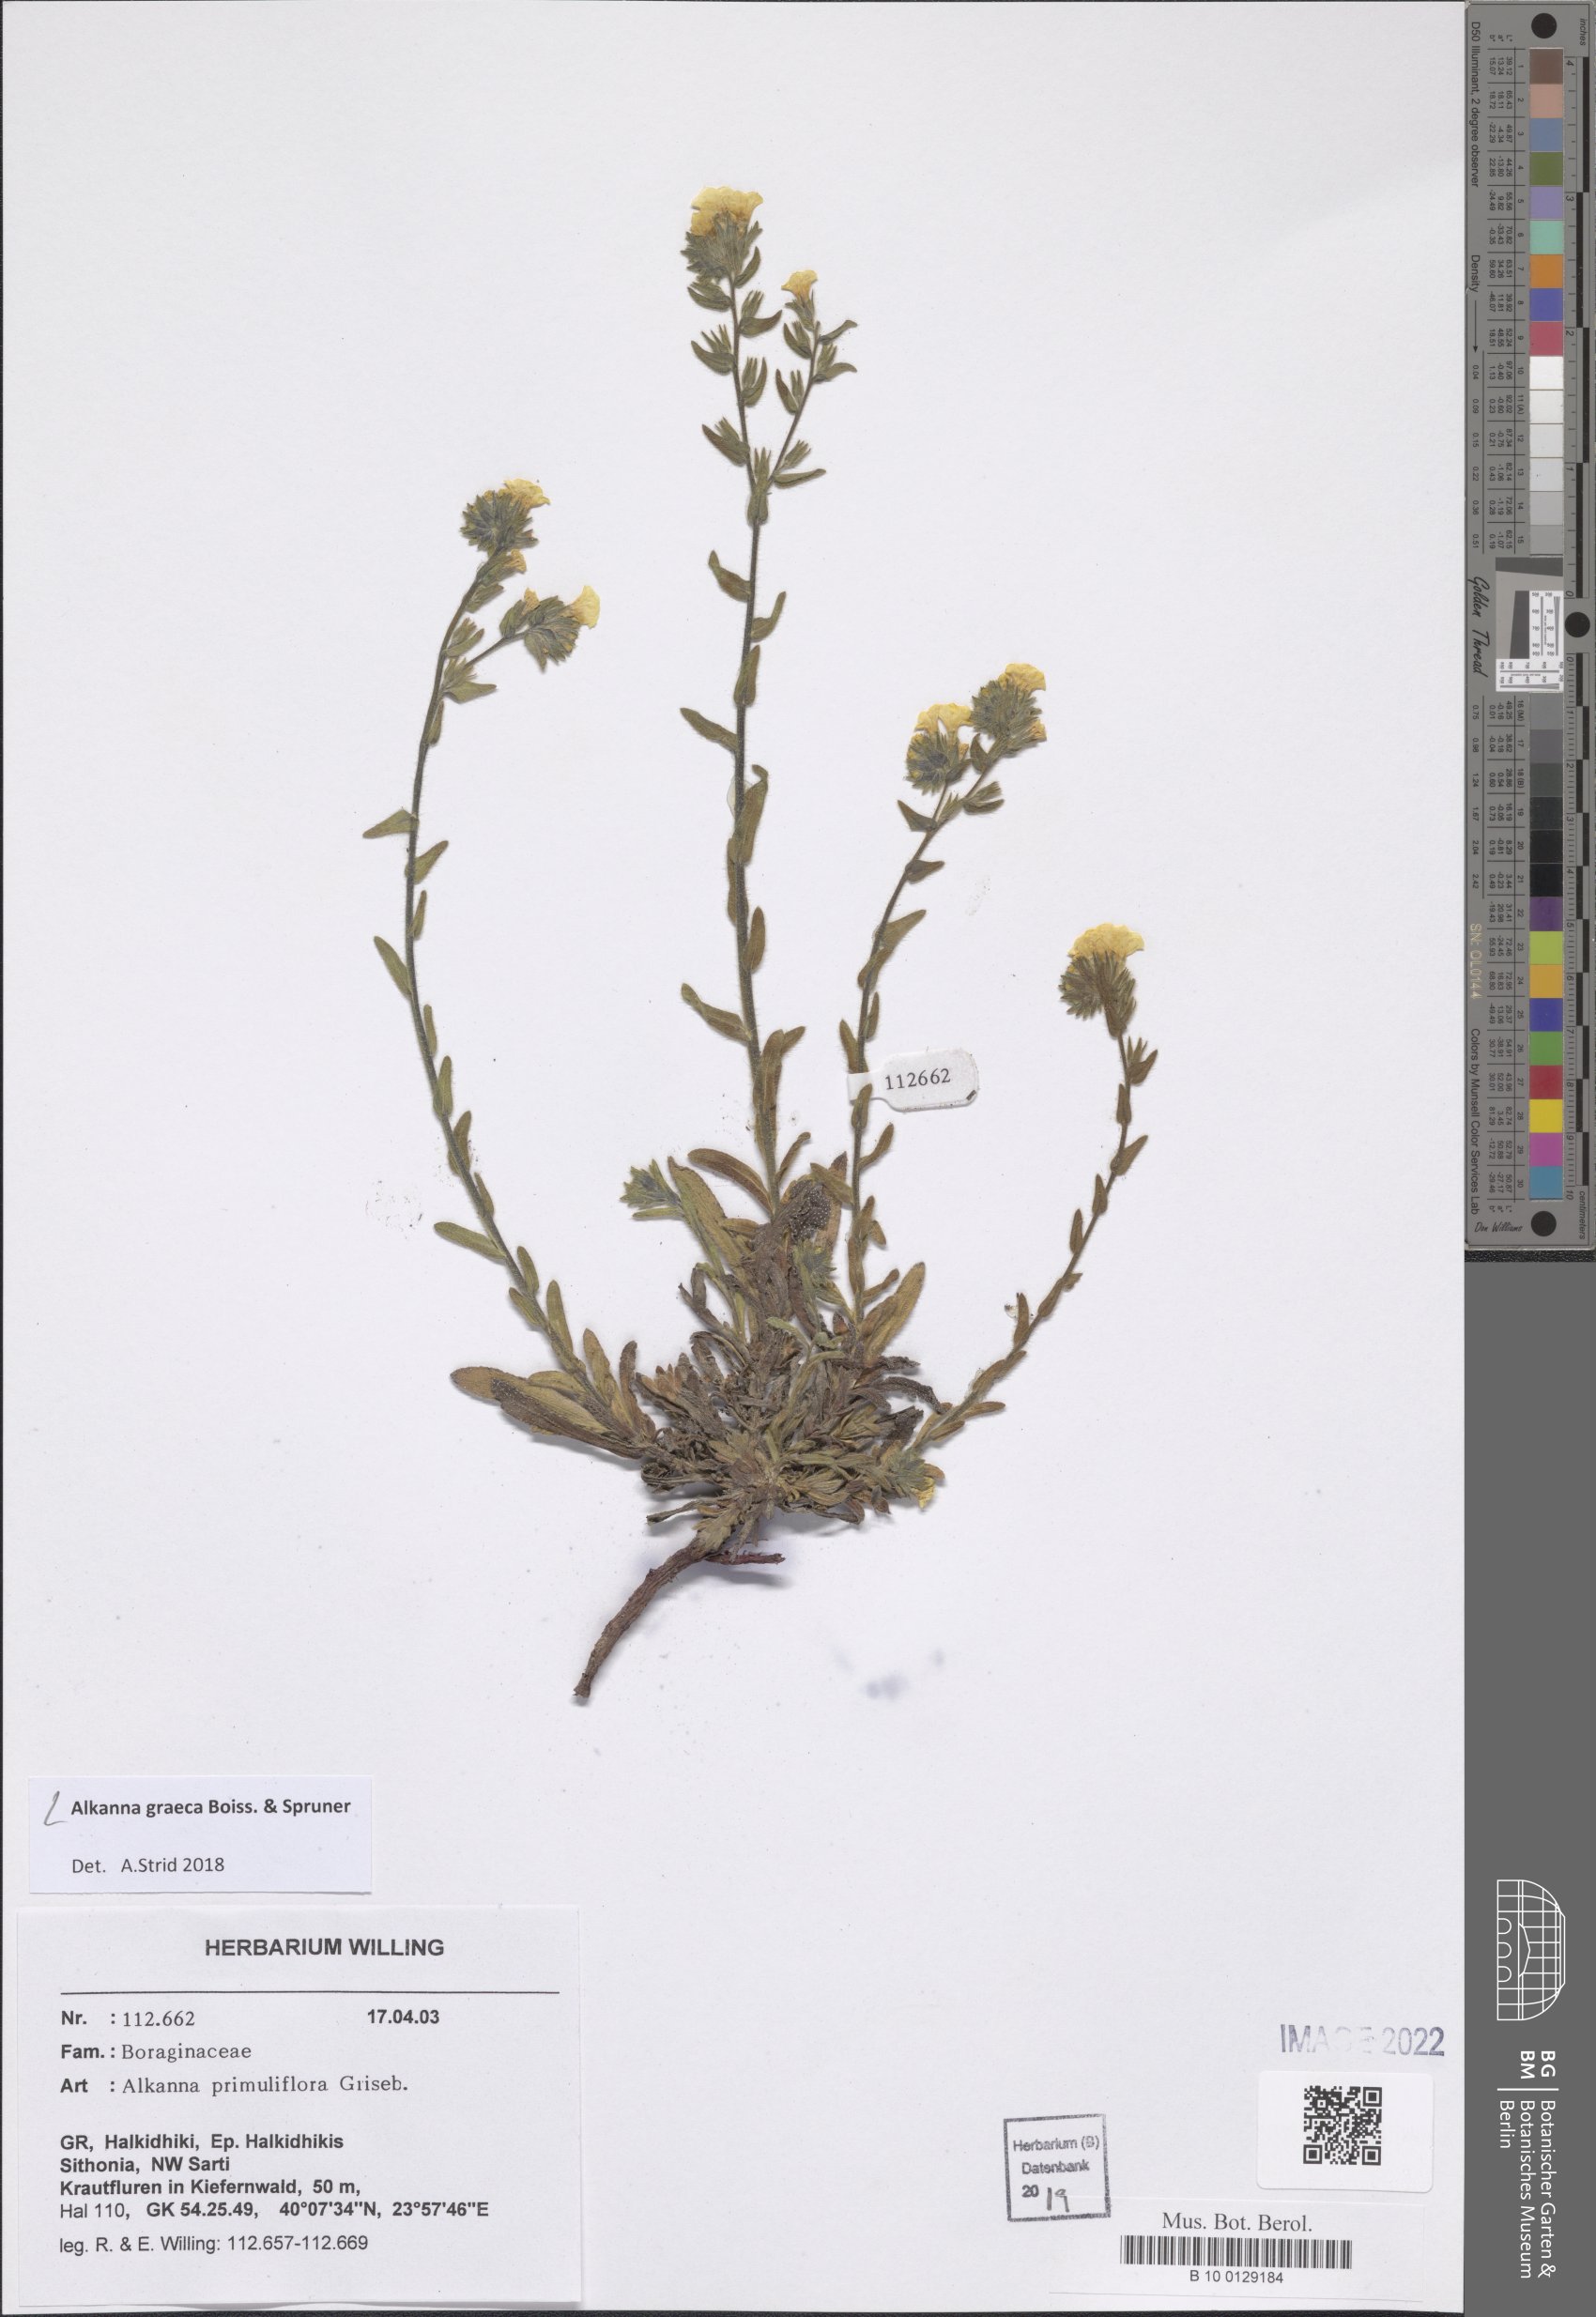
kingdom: Plantae
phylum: Tracheophyta
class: Magnoliopsida
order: Boraginales
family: Boraginaceae
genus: Alkanna
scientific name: Alkanna graeca
